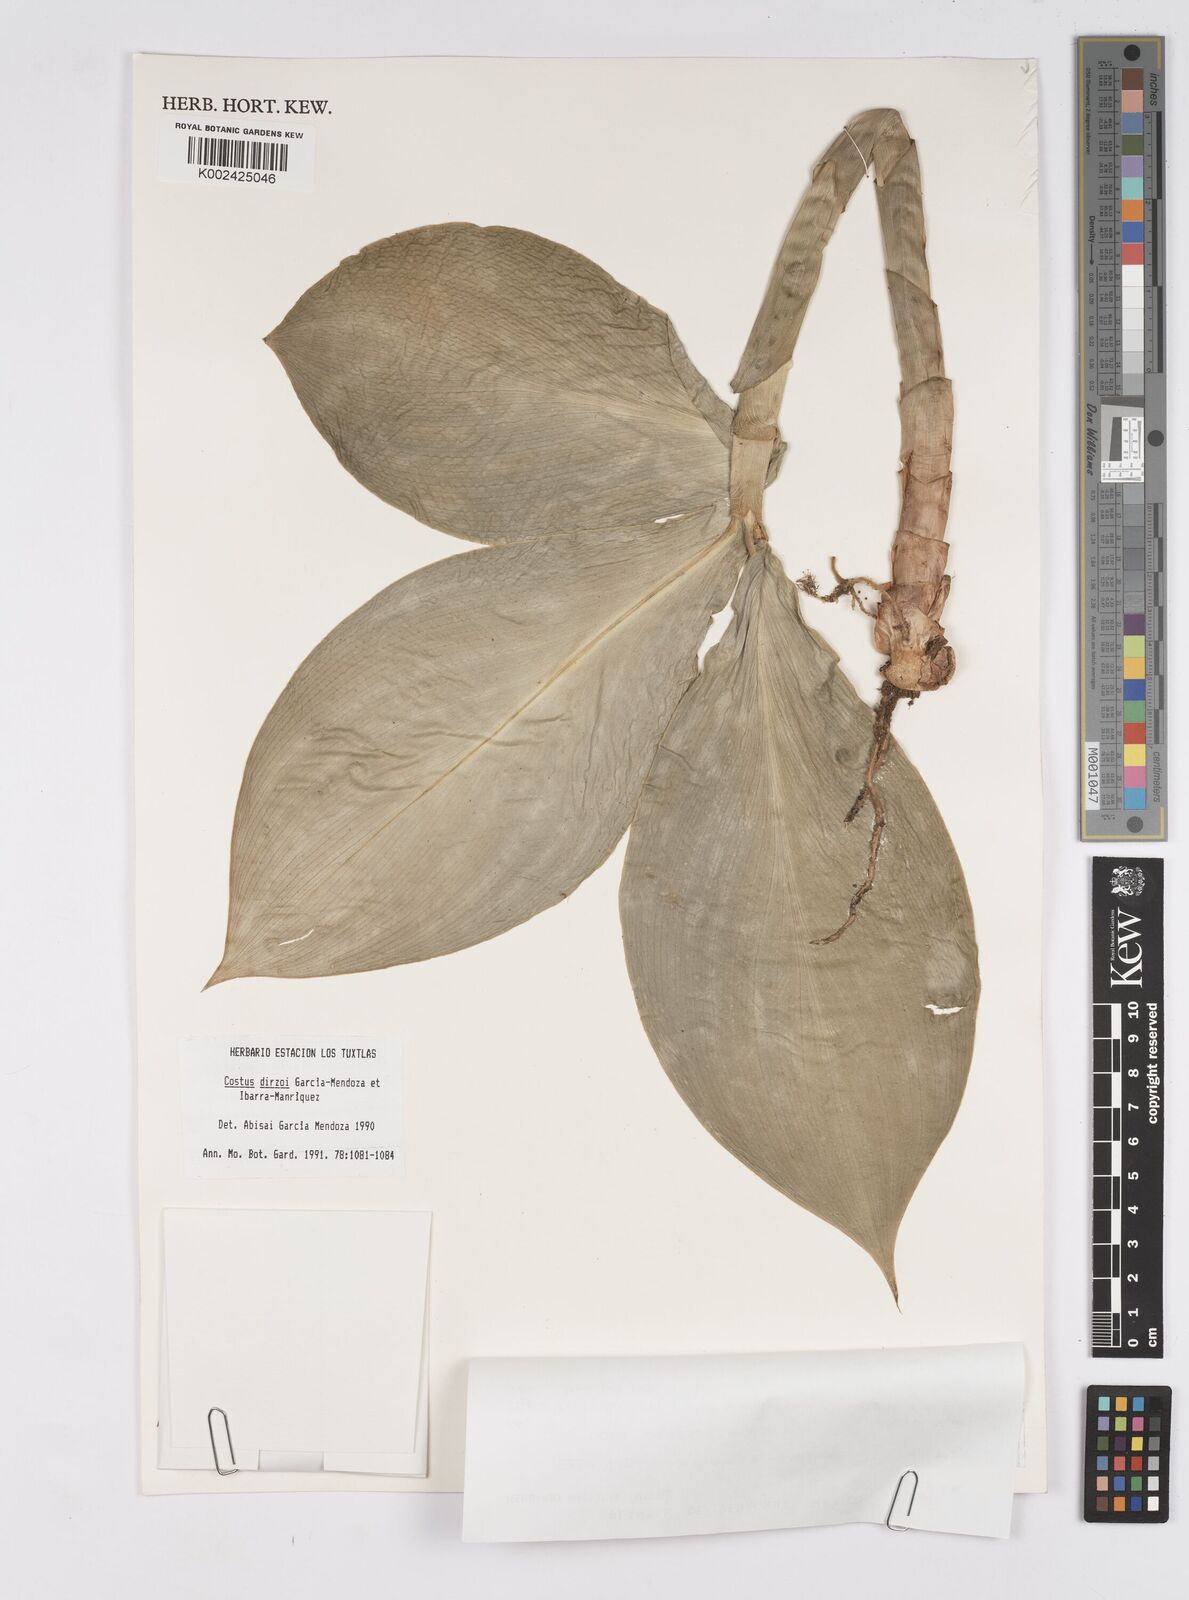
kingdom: Plantae
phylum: Tracheophyta
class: Liliopsida
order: Zingiberales
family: Costaceae
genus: Costus
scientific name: Costus dirzoi
